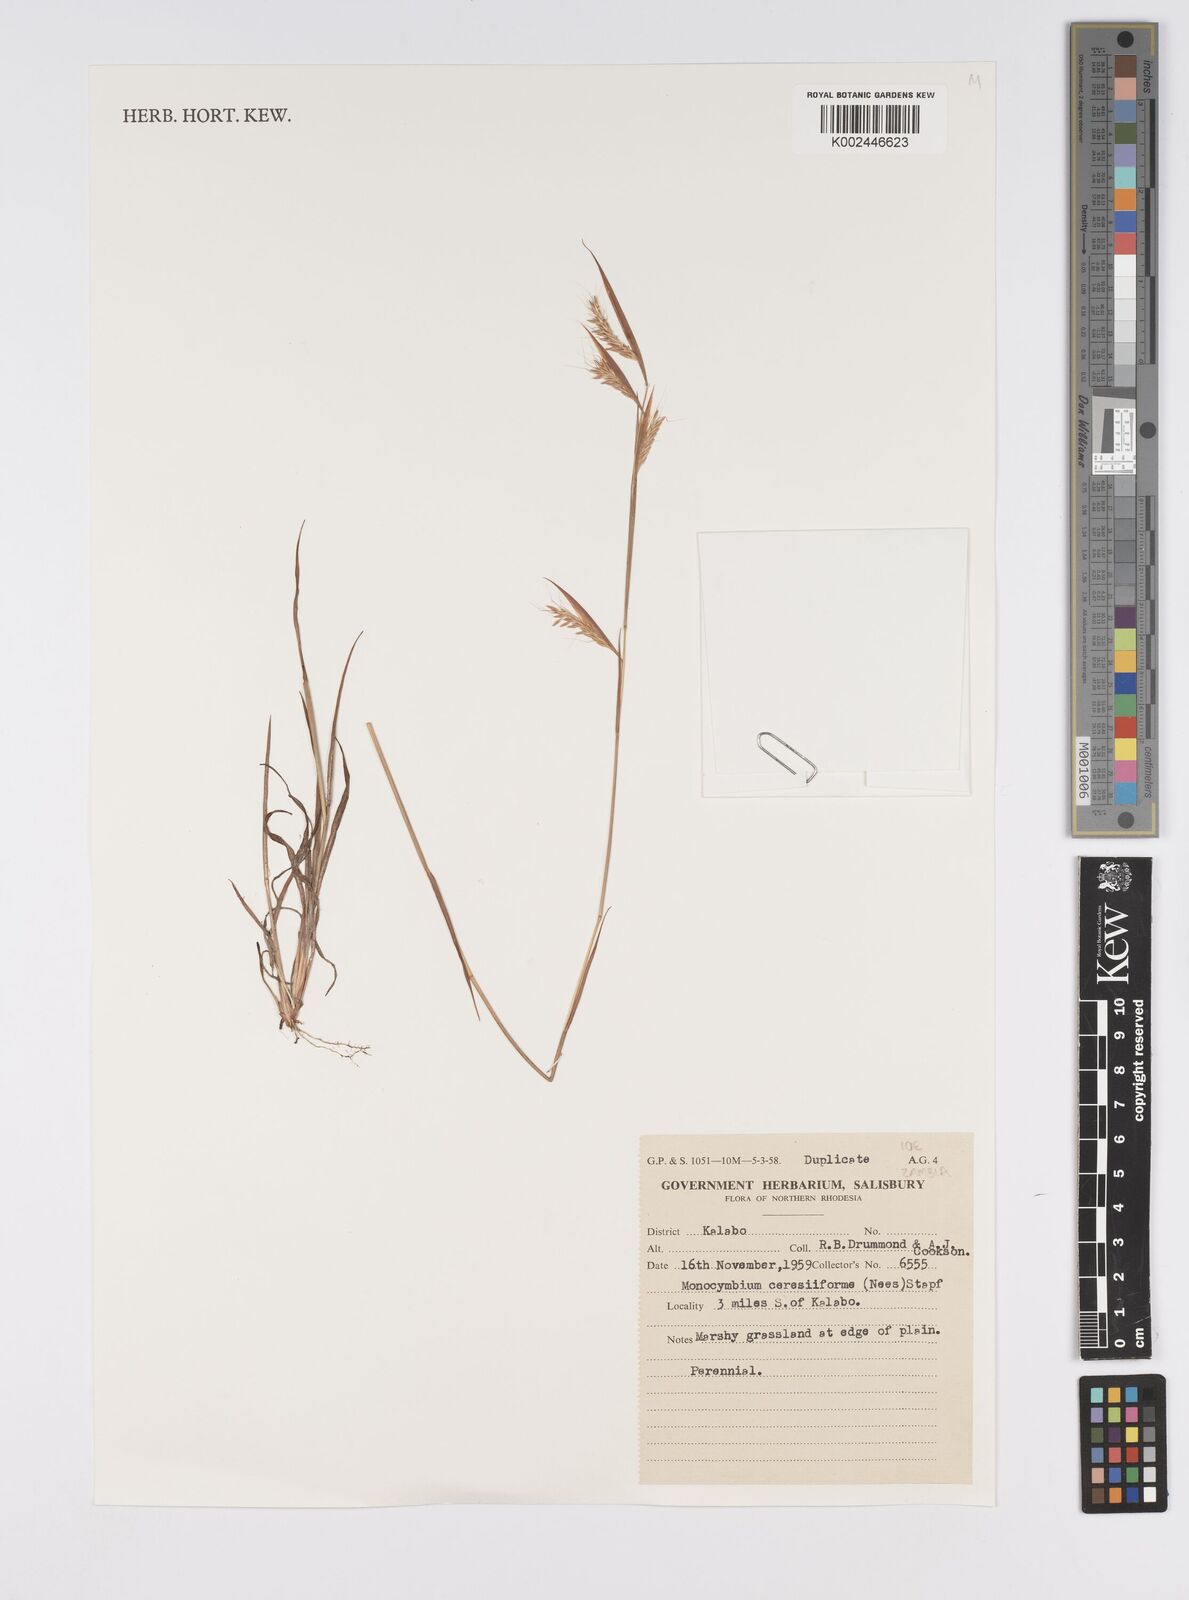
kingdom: Plantae
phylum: Tracheophyta
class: Liliopsida
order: Poales
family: Poaceae
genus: Monocymbium
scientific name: Monocymbium ceresiiforme
